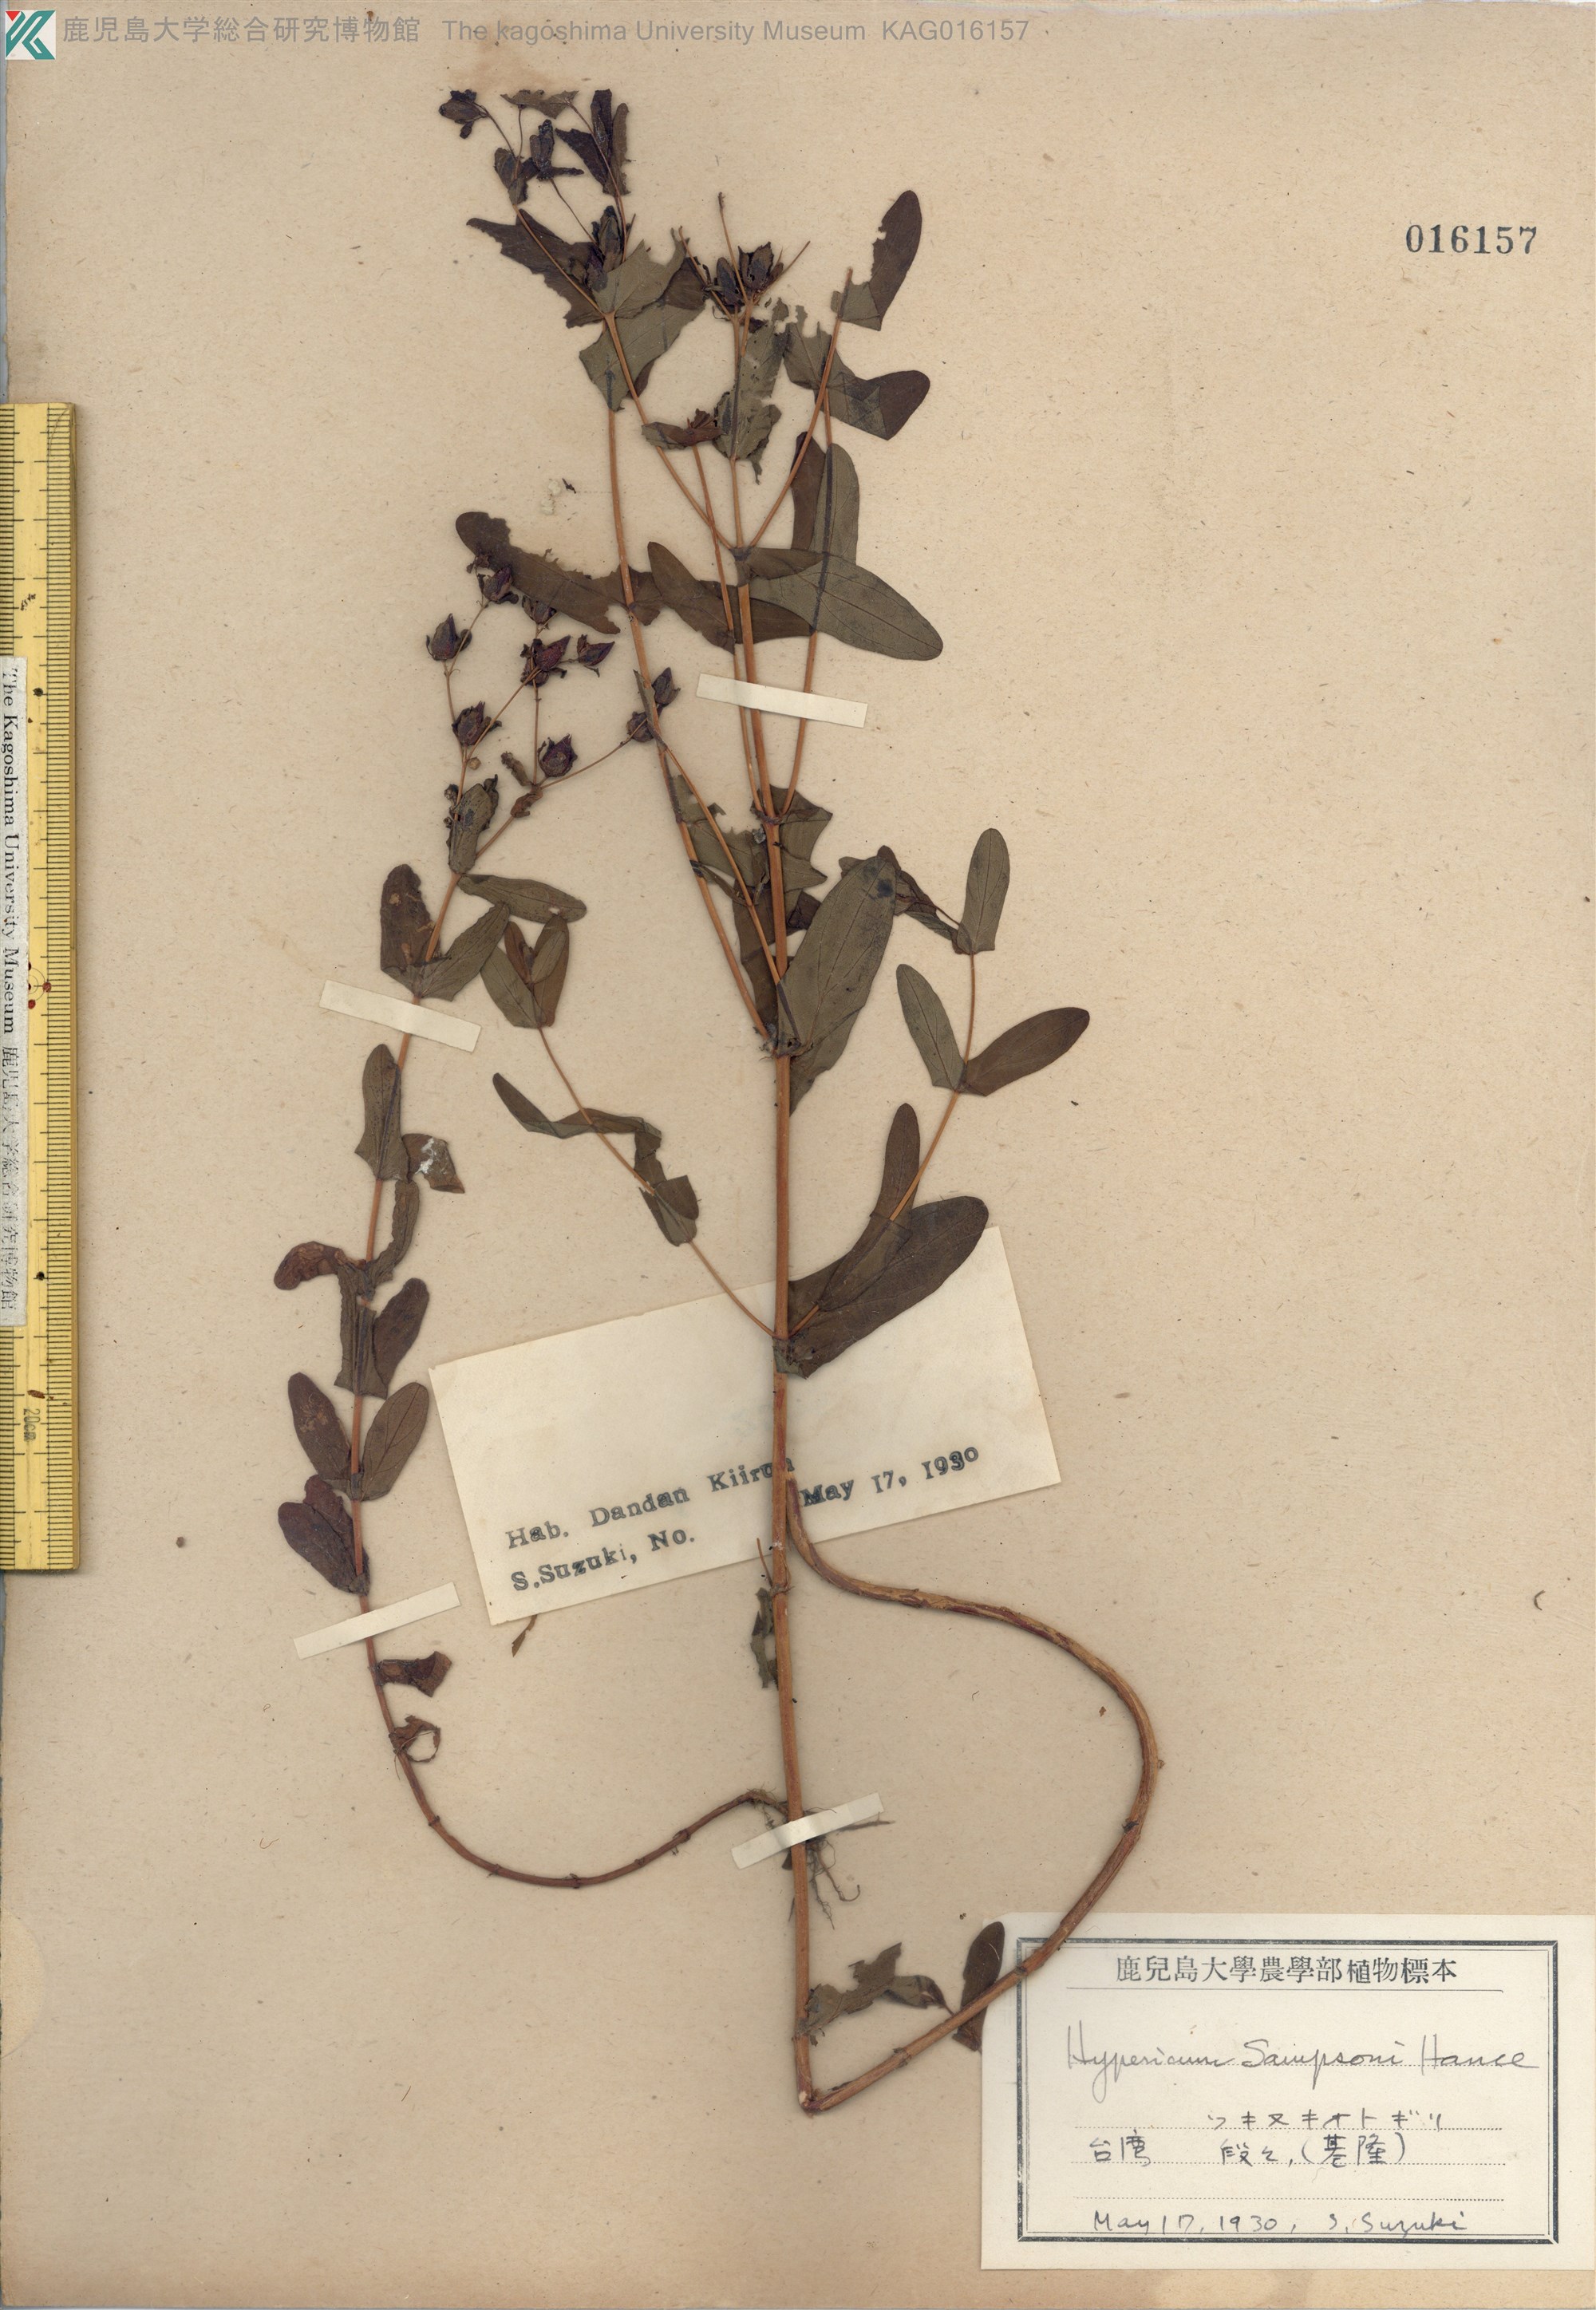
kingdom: Plantae
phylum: Tracheophyta
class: Magnoliopsida
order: Malpighiales
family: Hypericaceae
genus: Hypericum
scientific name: Hypericum sampsonii
